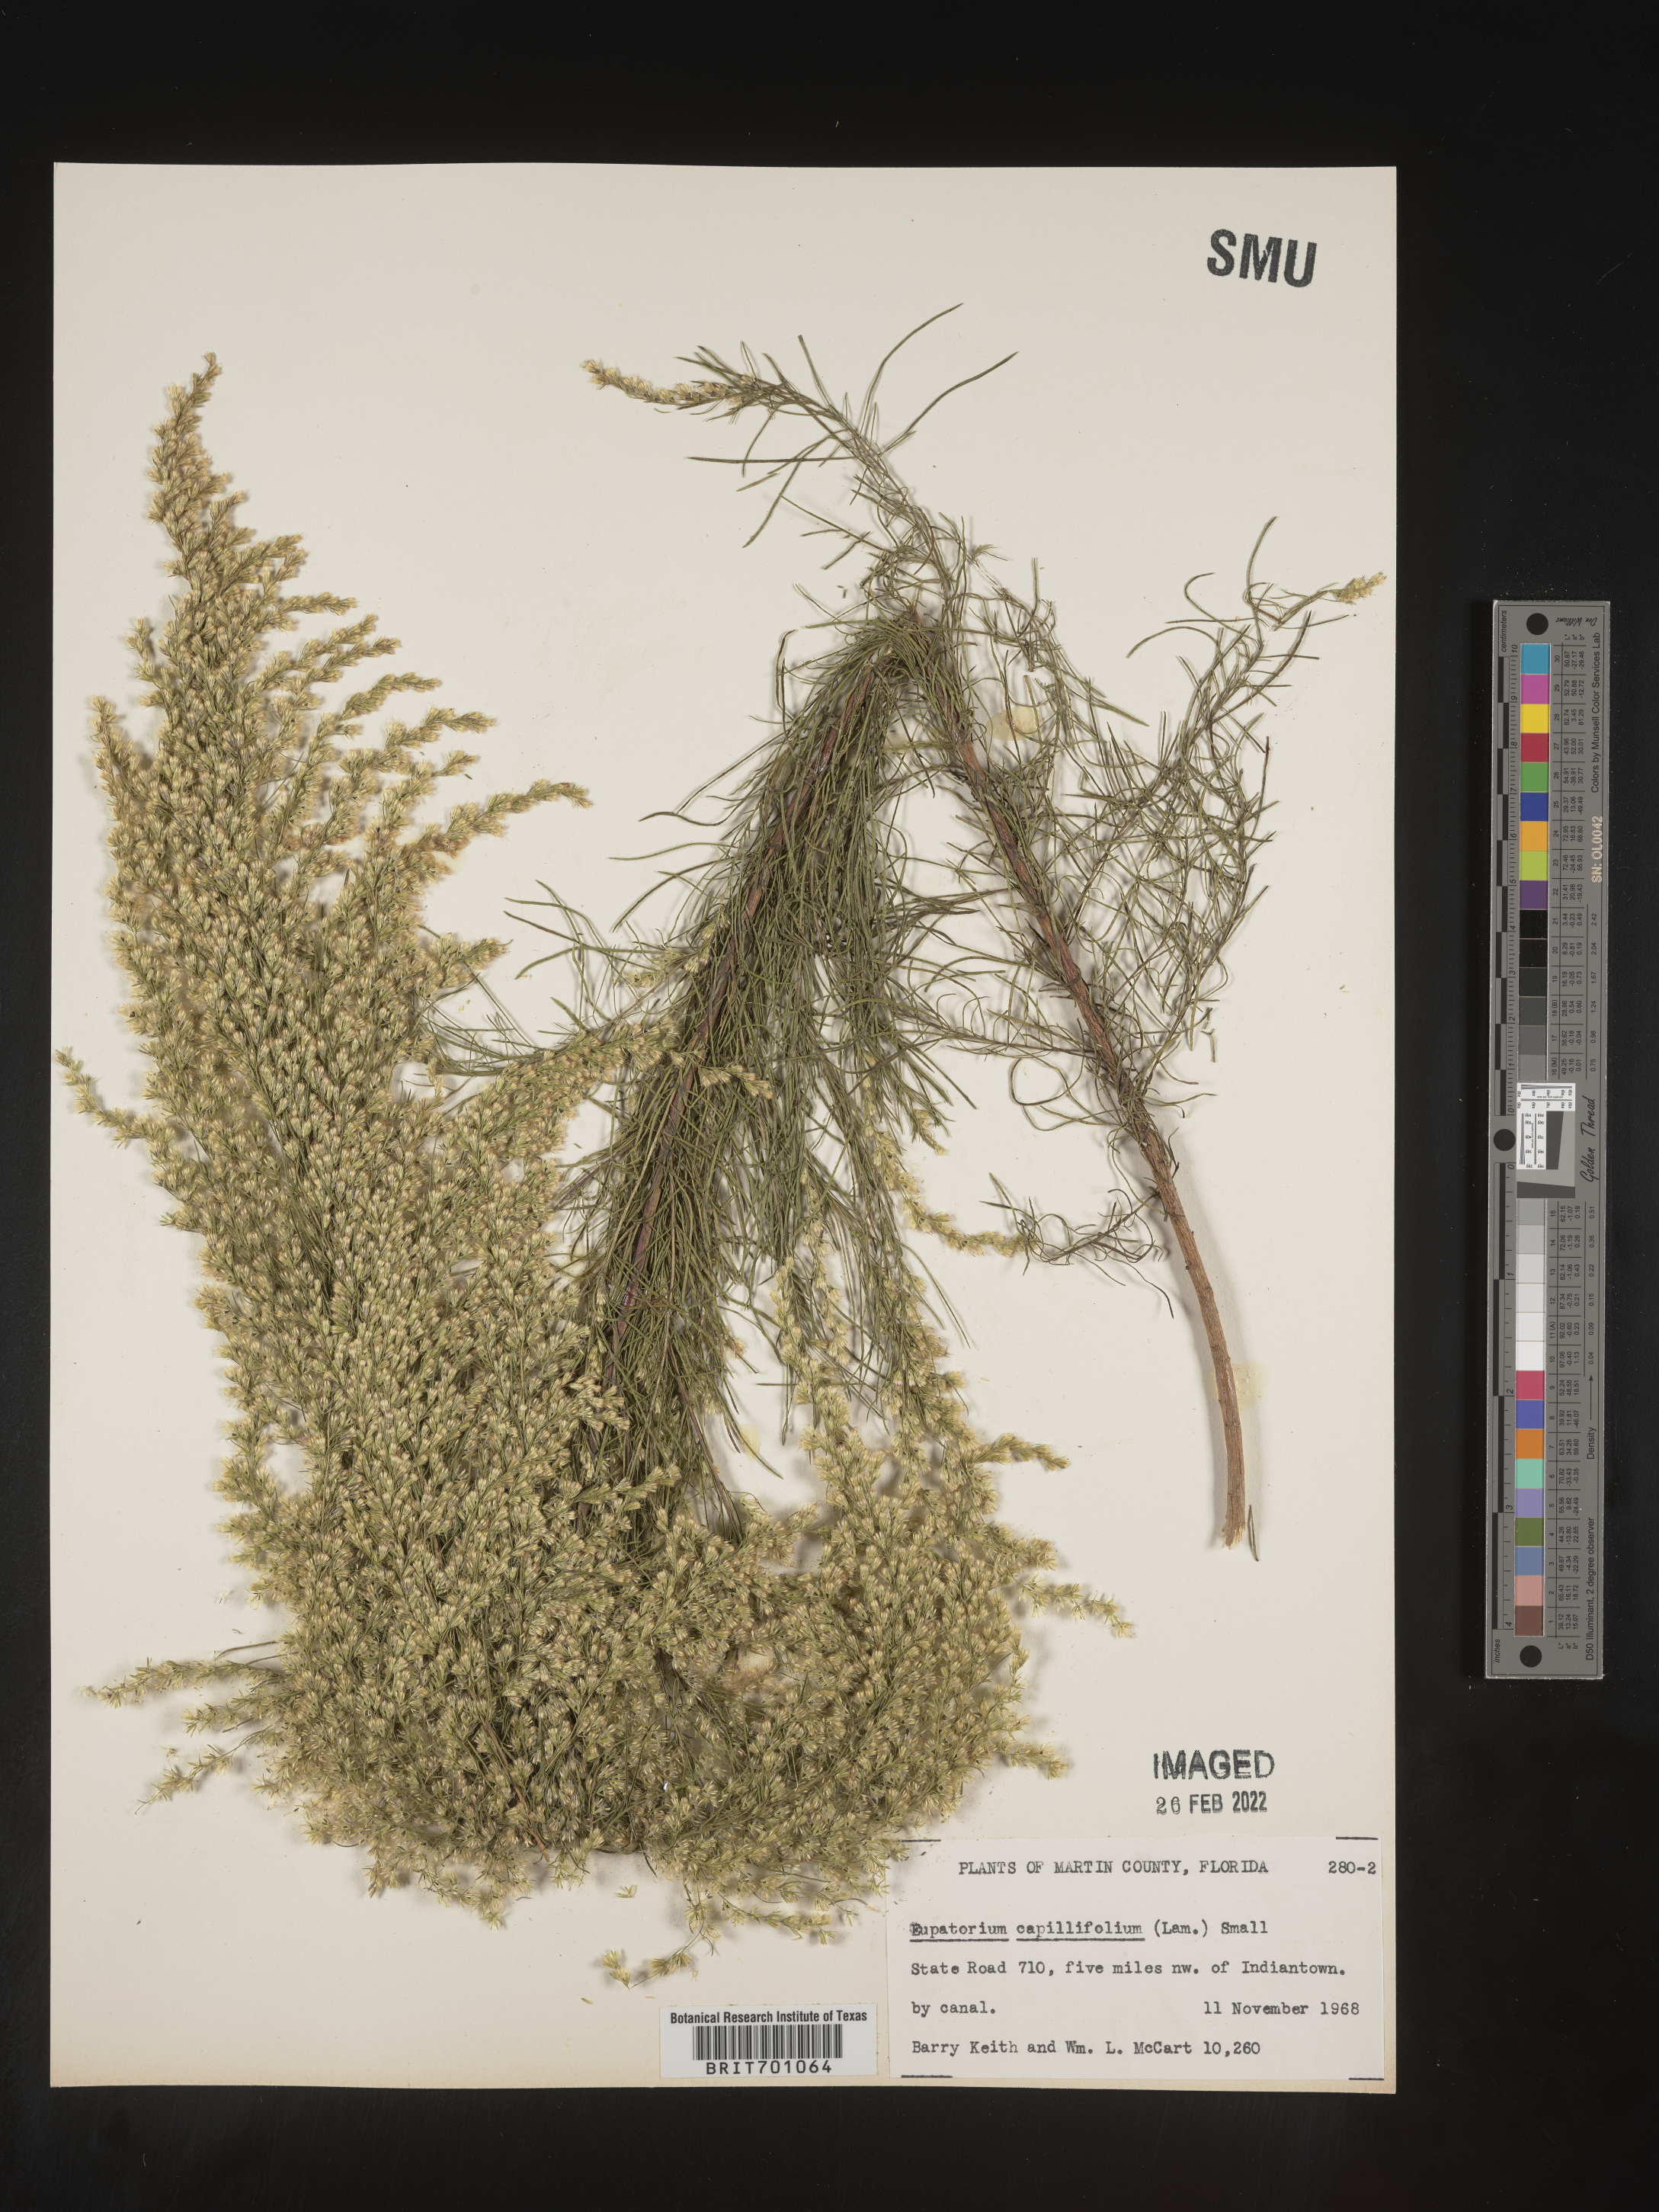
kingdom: Plantae
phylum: Tracheophyta
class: Magnoliopsida
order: Asterales
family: Asteraceae
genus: Eupatorium
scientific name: Eupatorium capillifolium
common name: Dog-fennel
